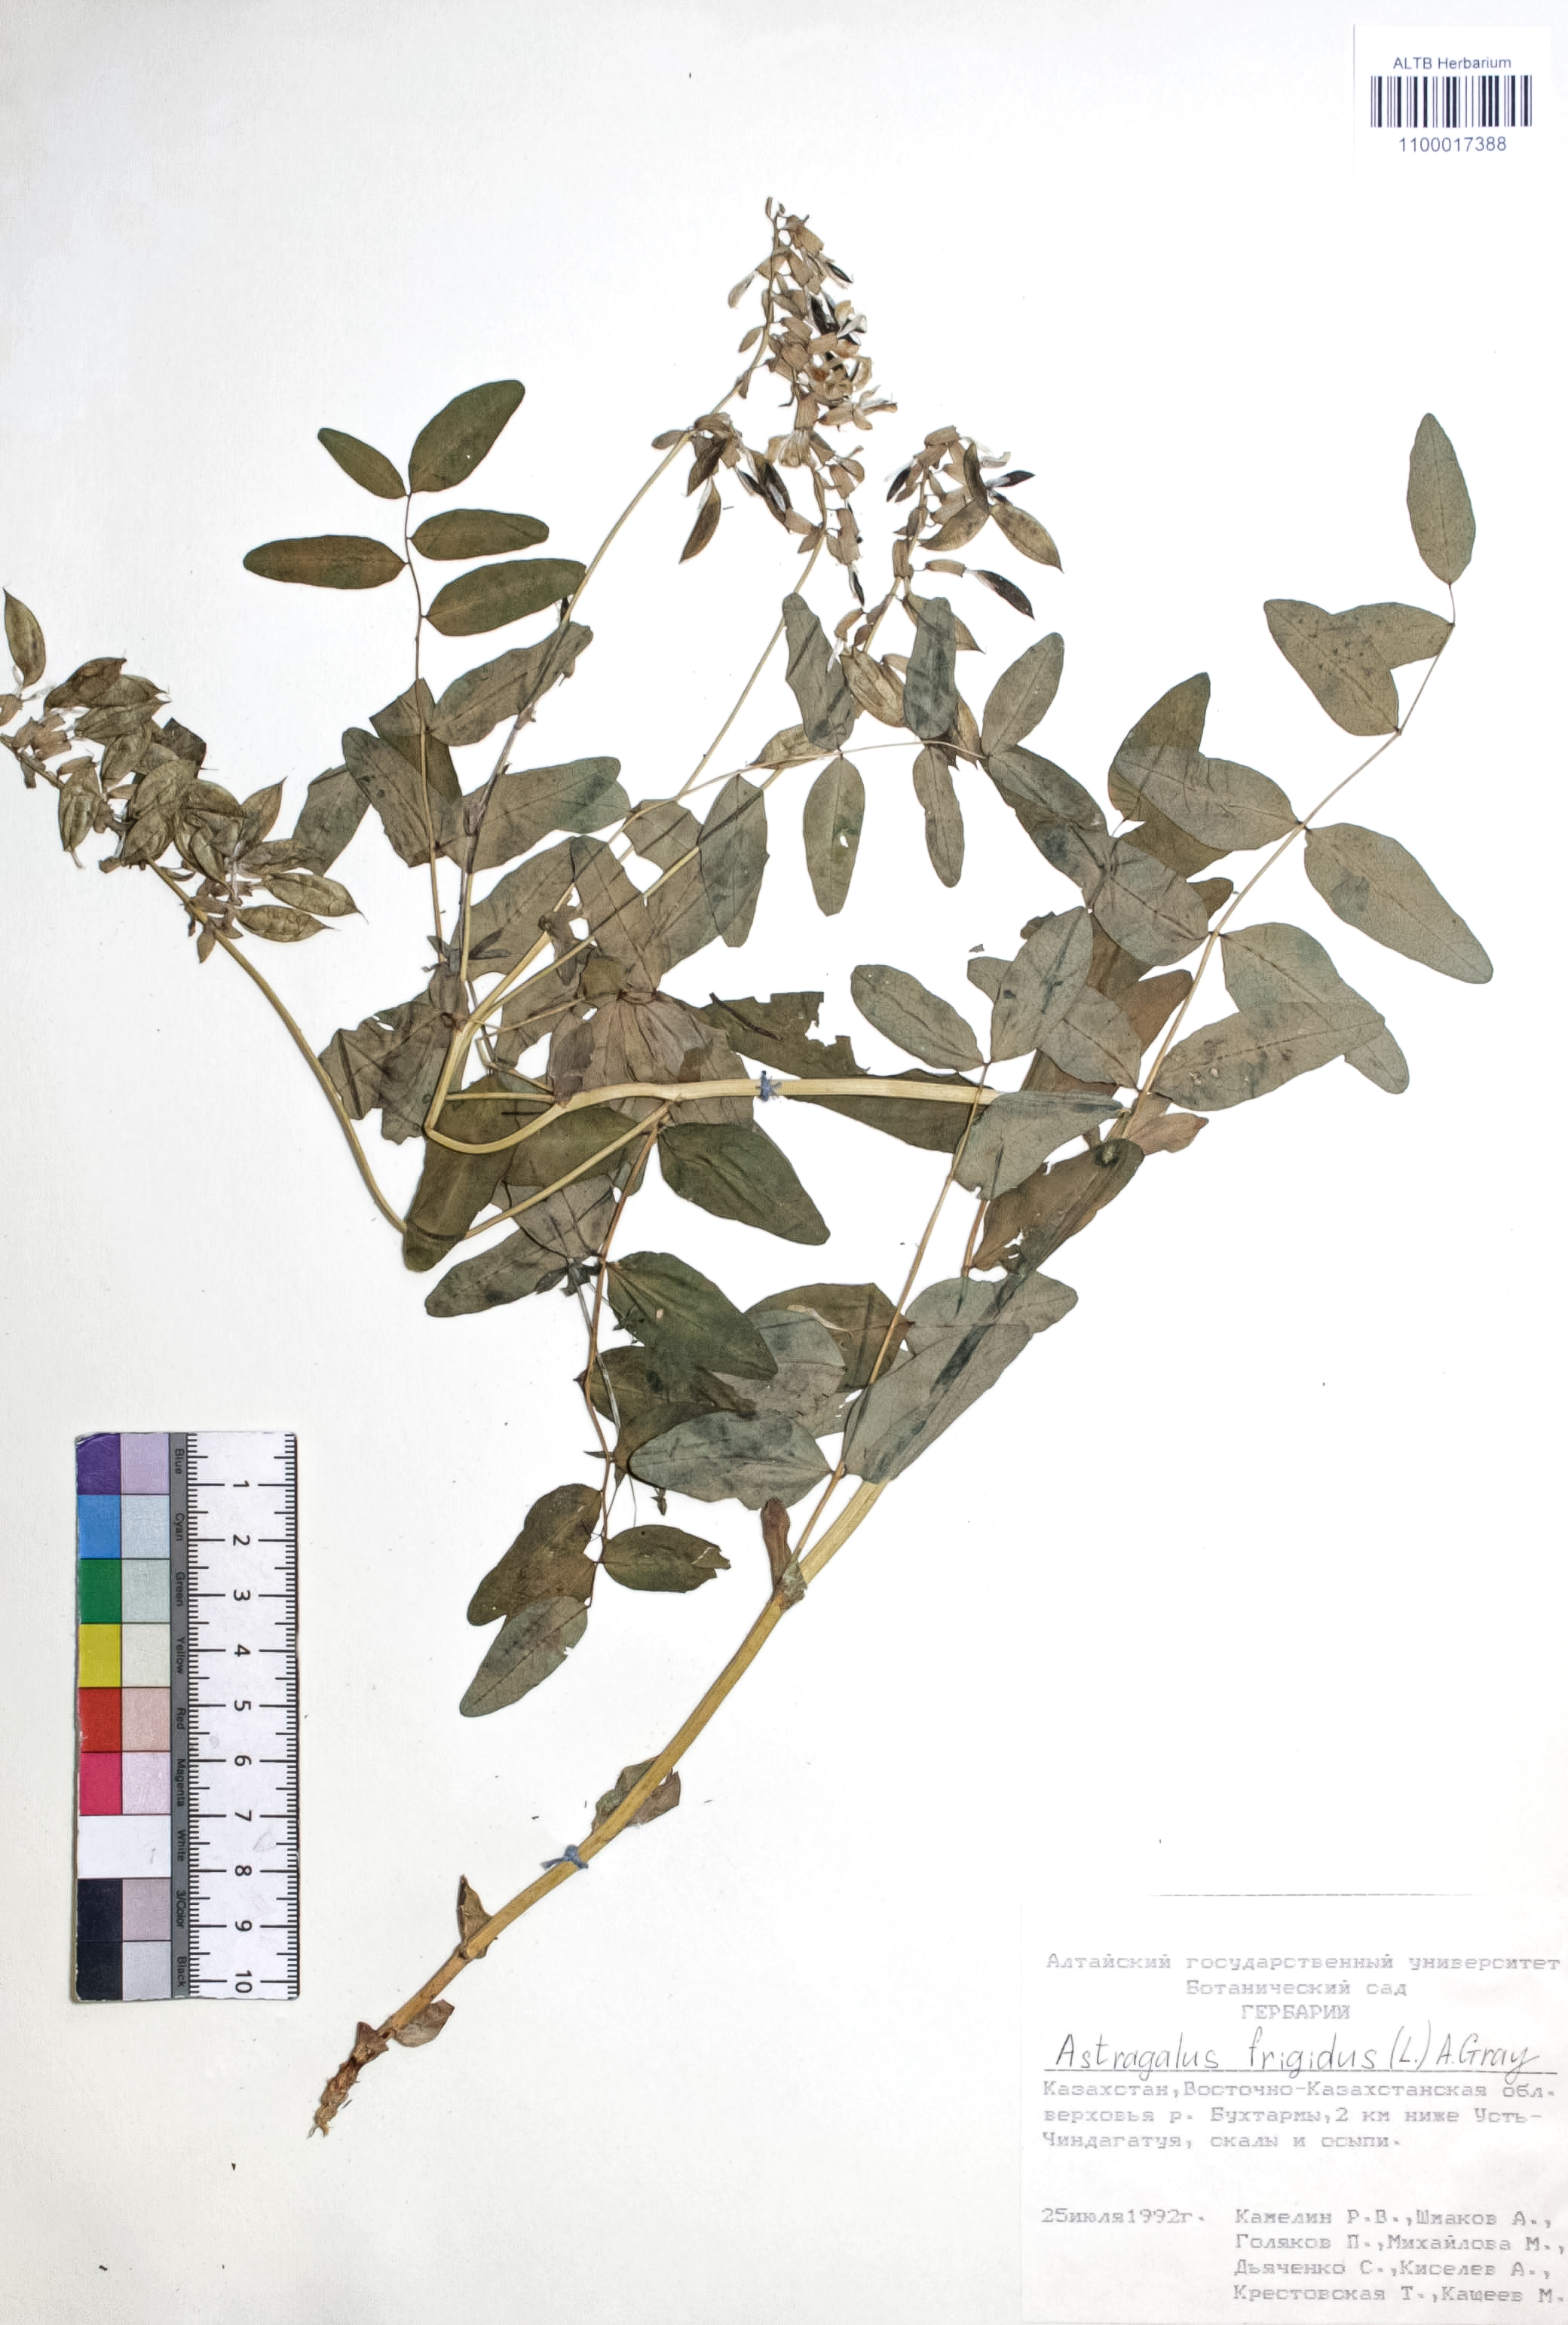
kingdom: Plantae
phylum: Tracheophyta
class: Magnoliopsida
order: Fabales
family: Fabaceae
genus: Astragalus
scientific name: Astragalus frigidus
